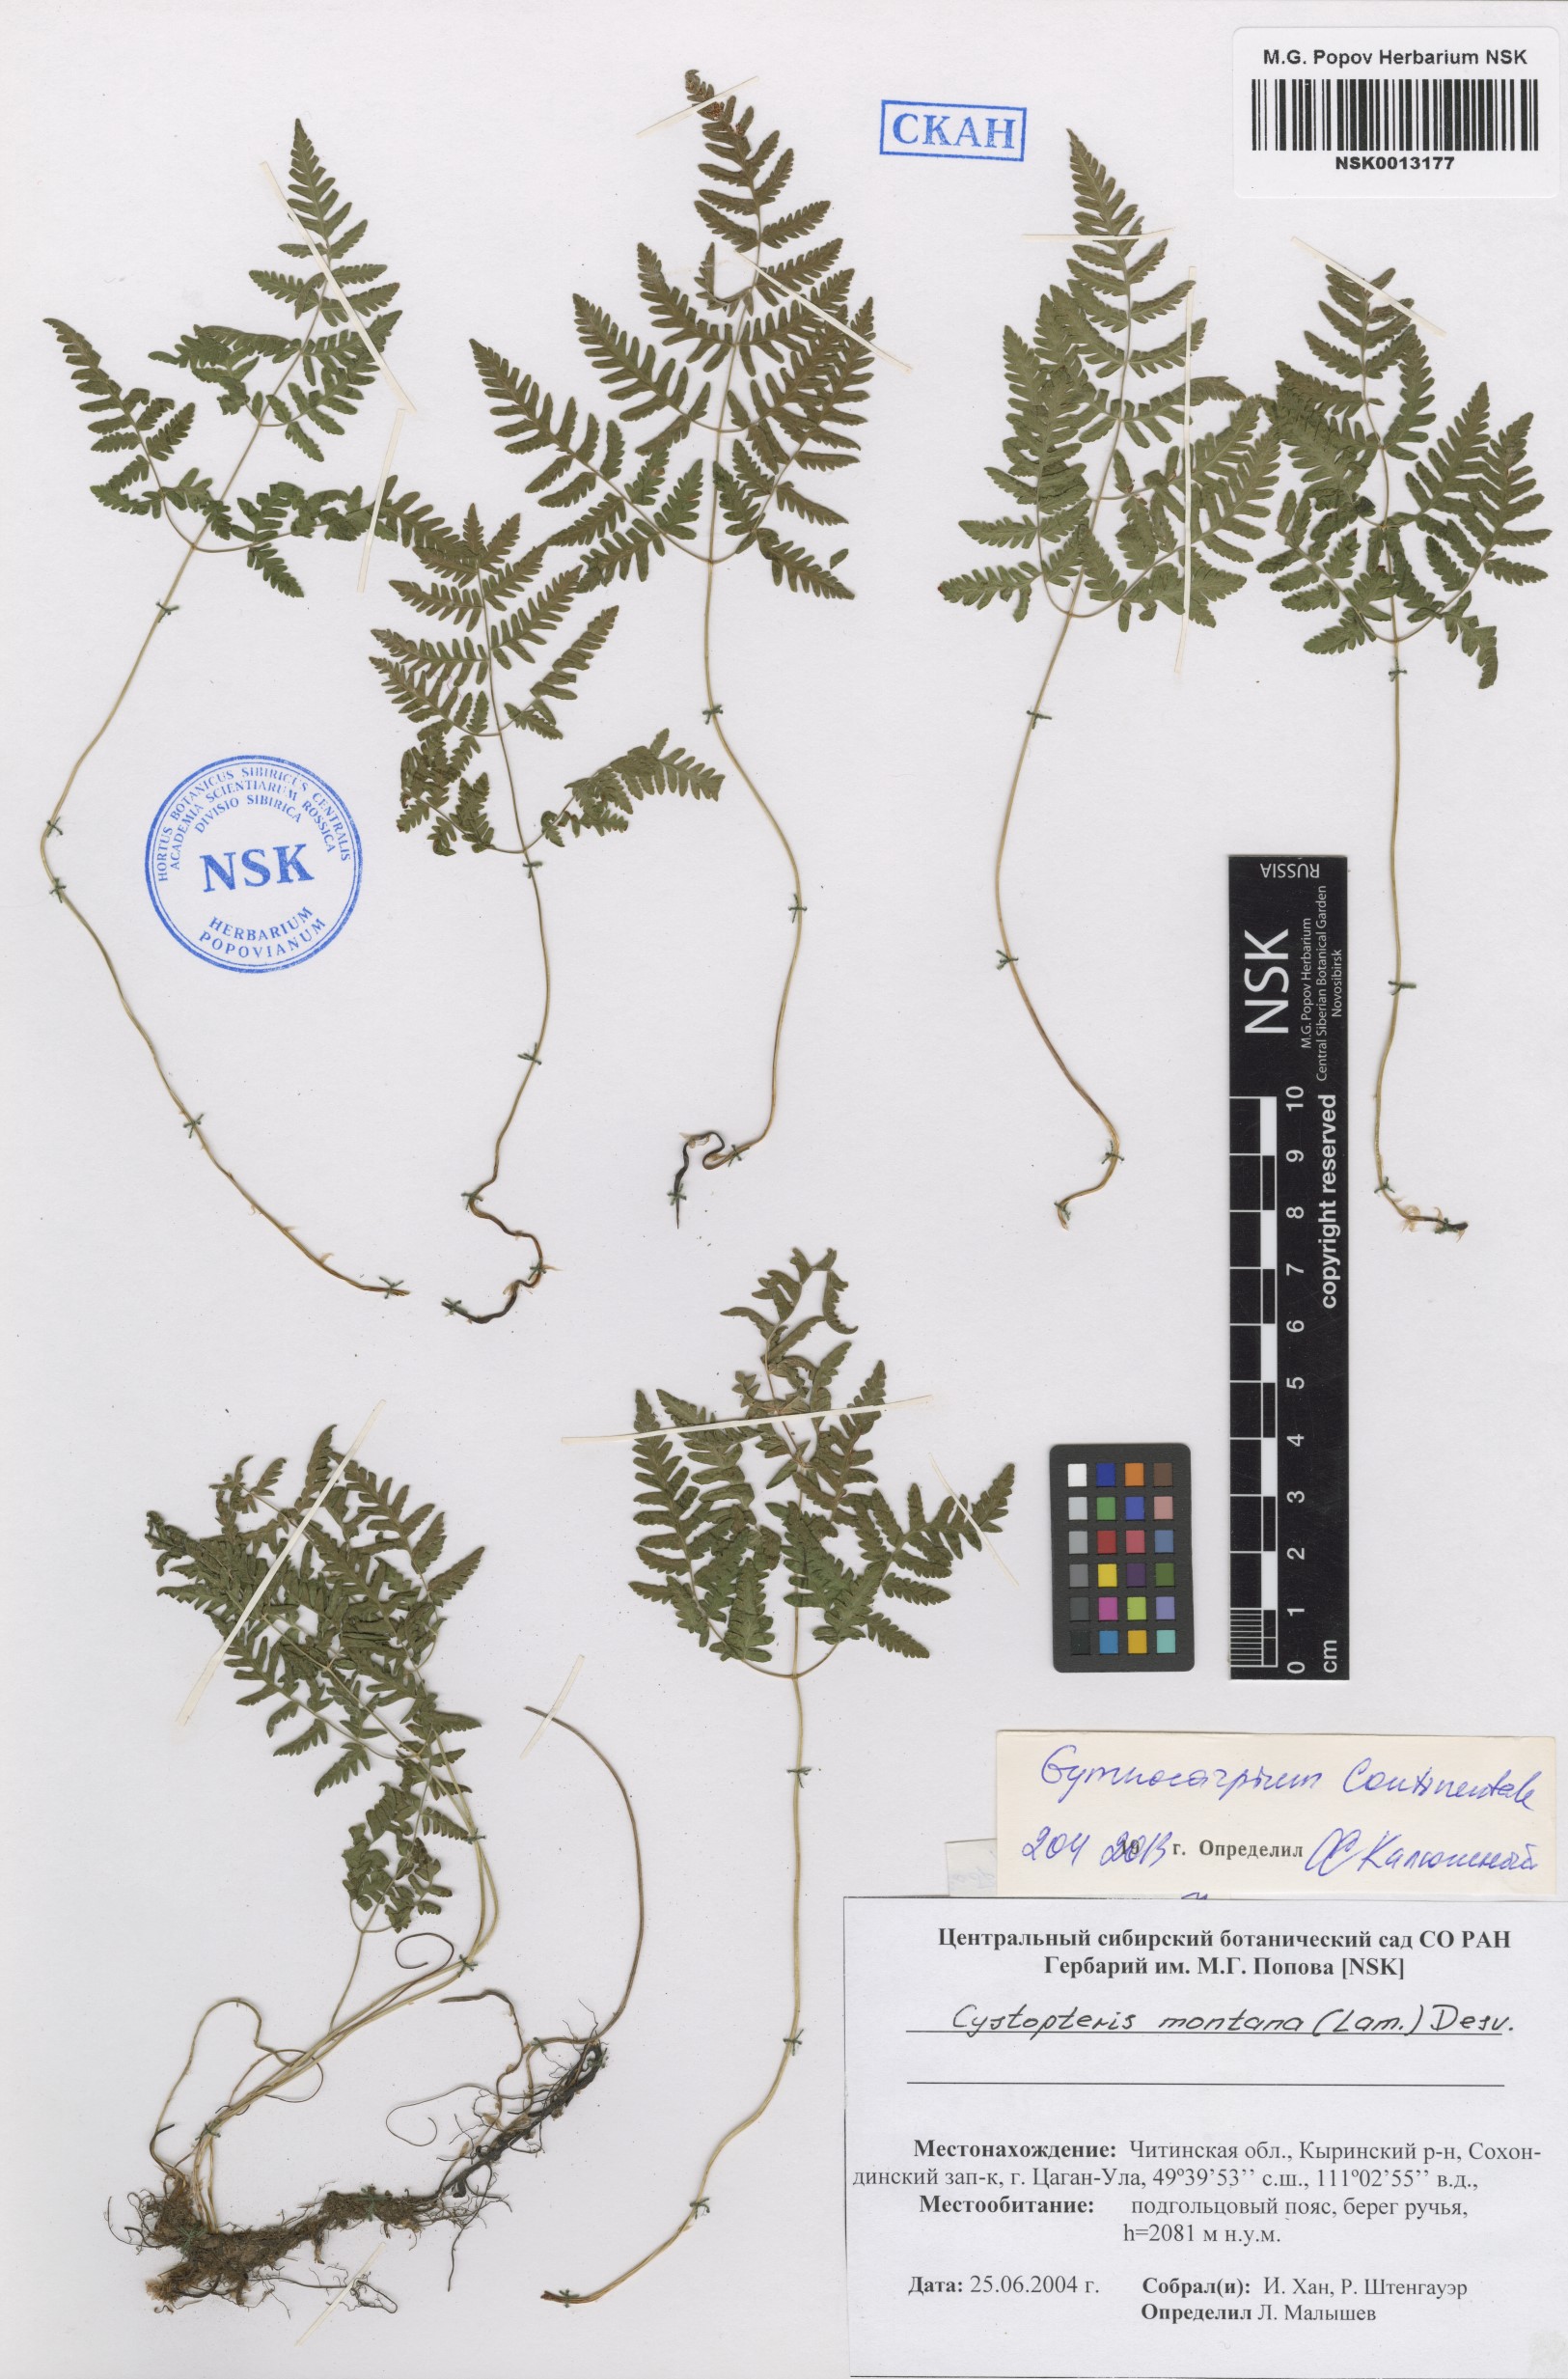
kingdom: Plantae
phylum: Tracheophyta
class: Polypodiopsida
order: Polypodiales
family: Cystopteridaceae
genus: Gymnocarpium
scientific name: Gymnocarpium continentale
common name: Asian oak fern
